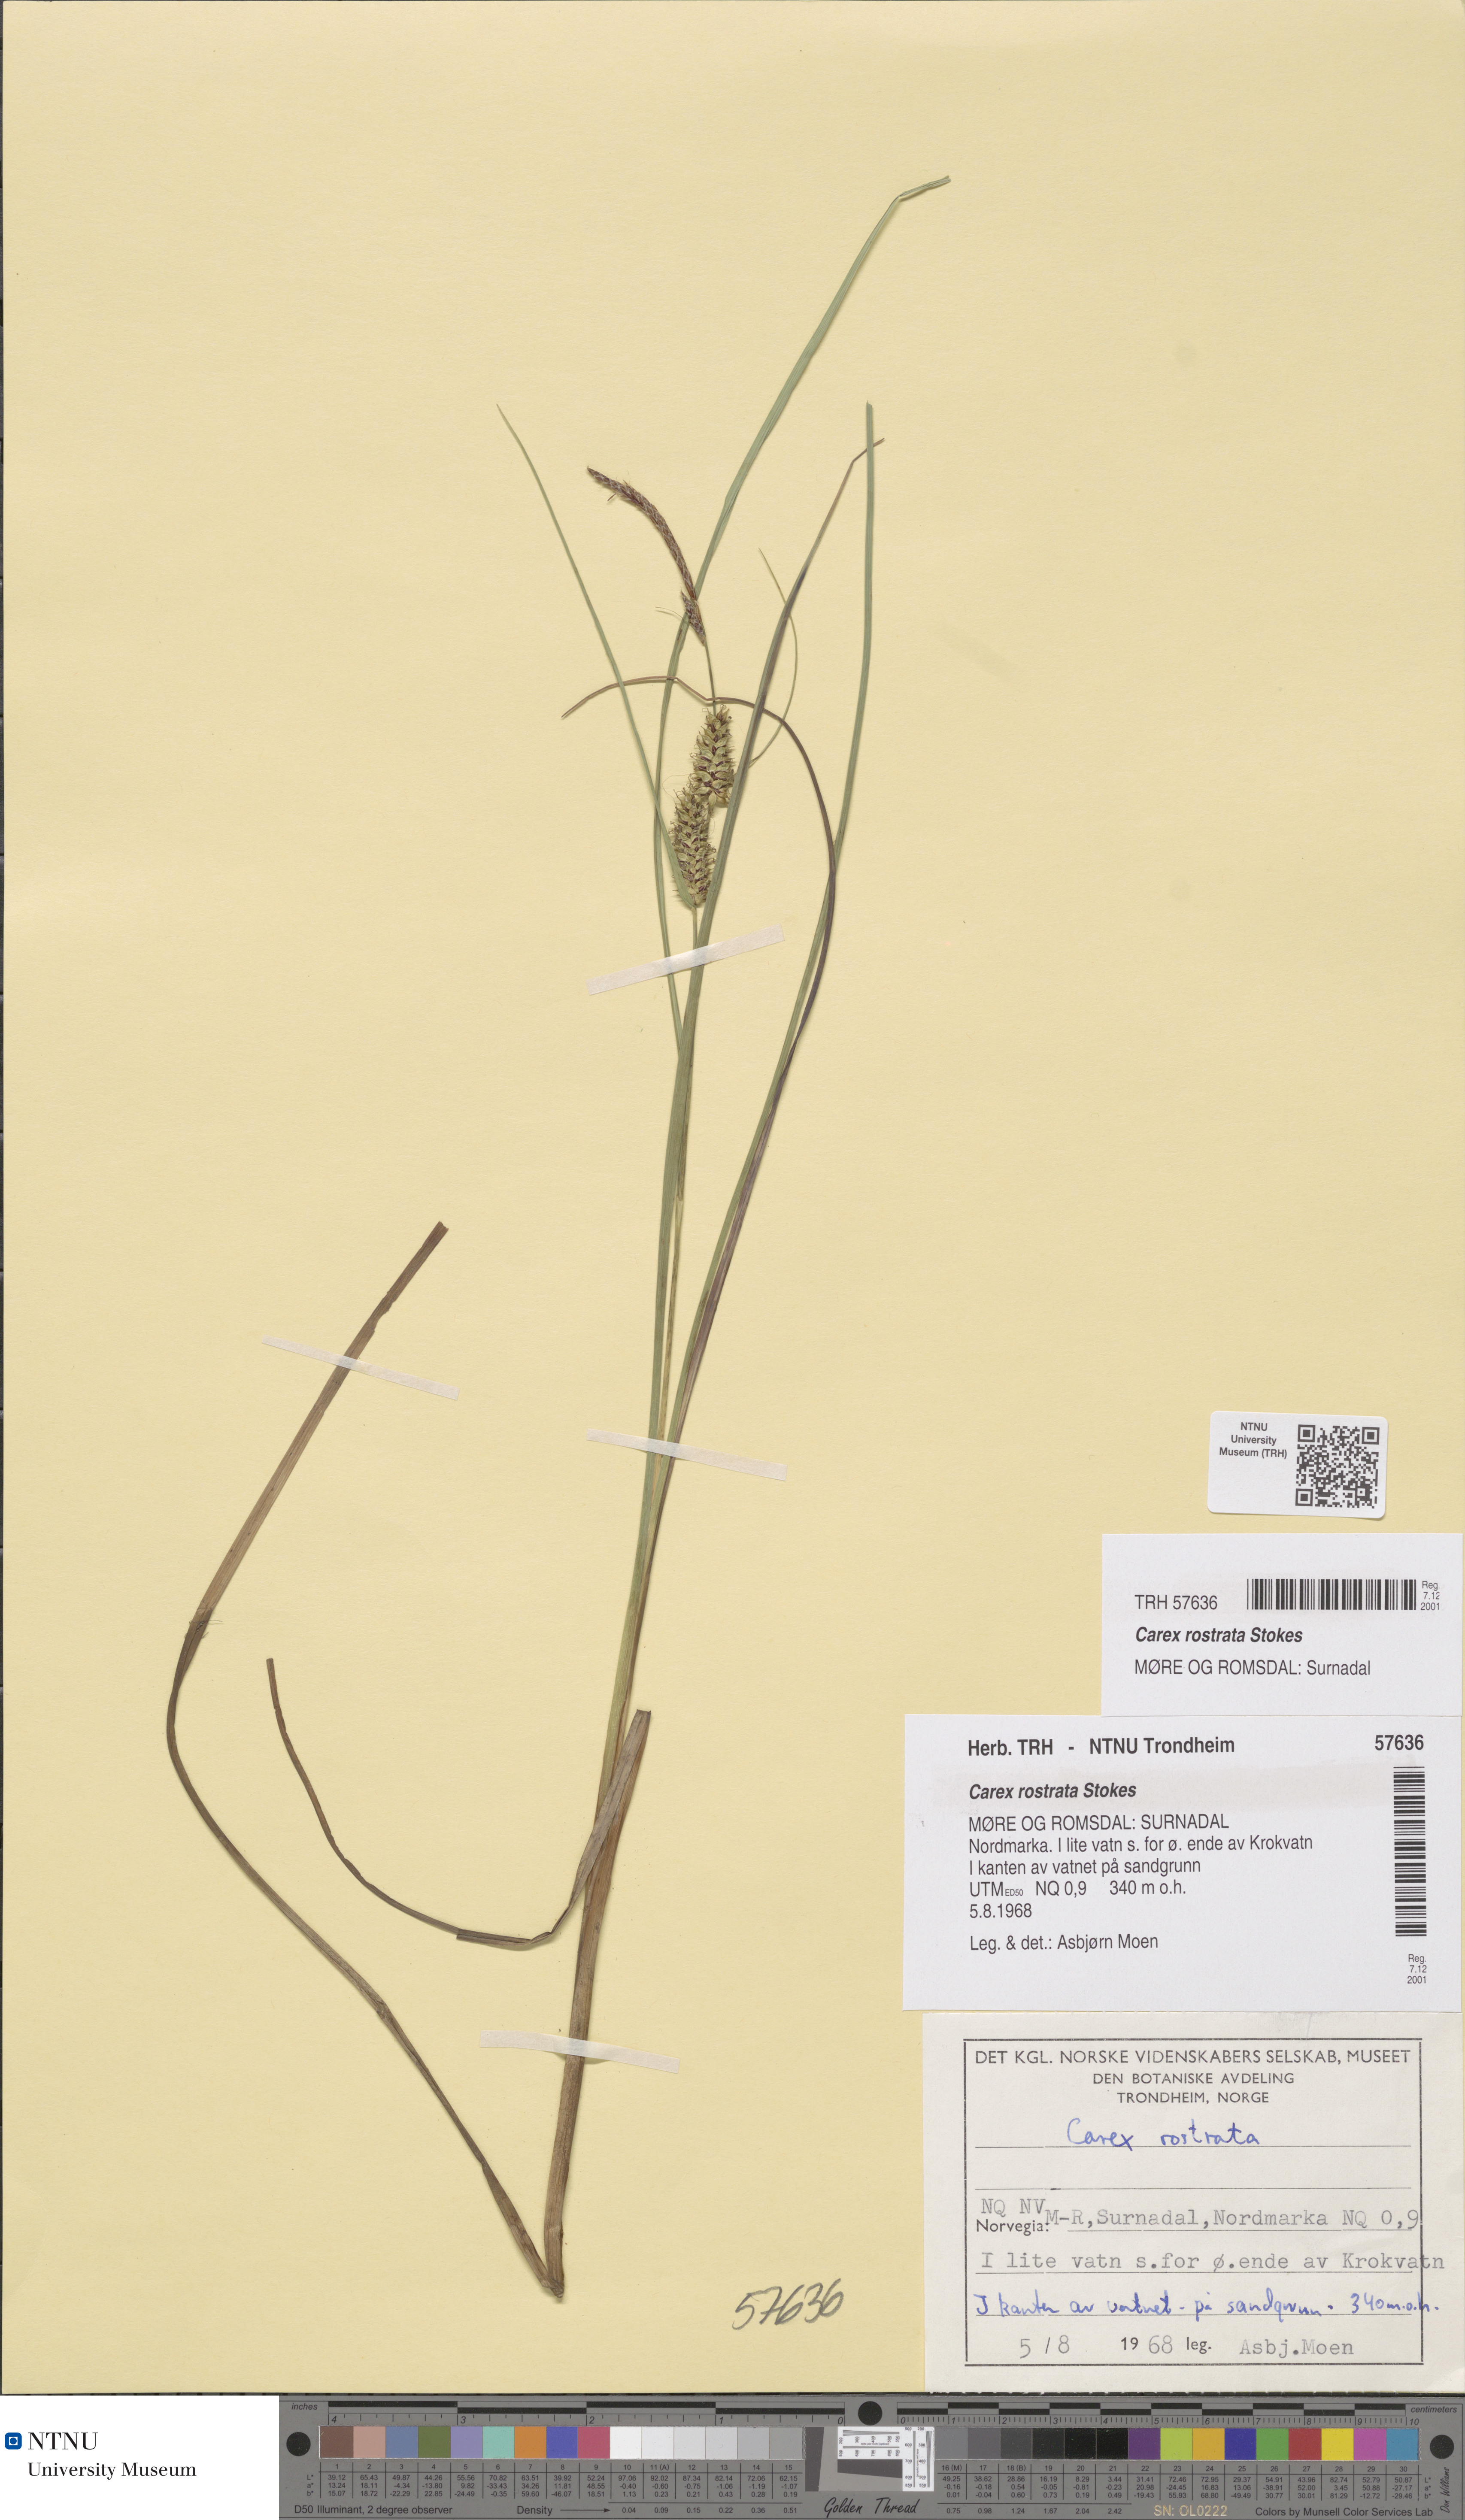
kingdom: Plantae
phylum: Tracheophyta
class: Liliopsida
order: Poales
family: Cyperaceae
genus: Carex
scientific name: Carex rostrata
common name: Bottle sedge
